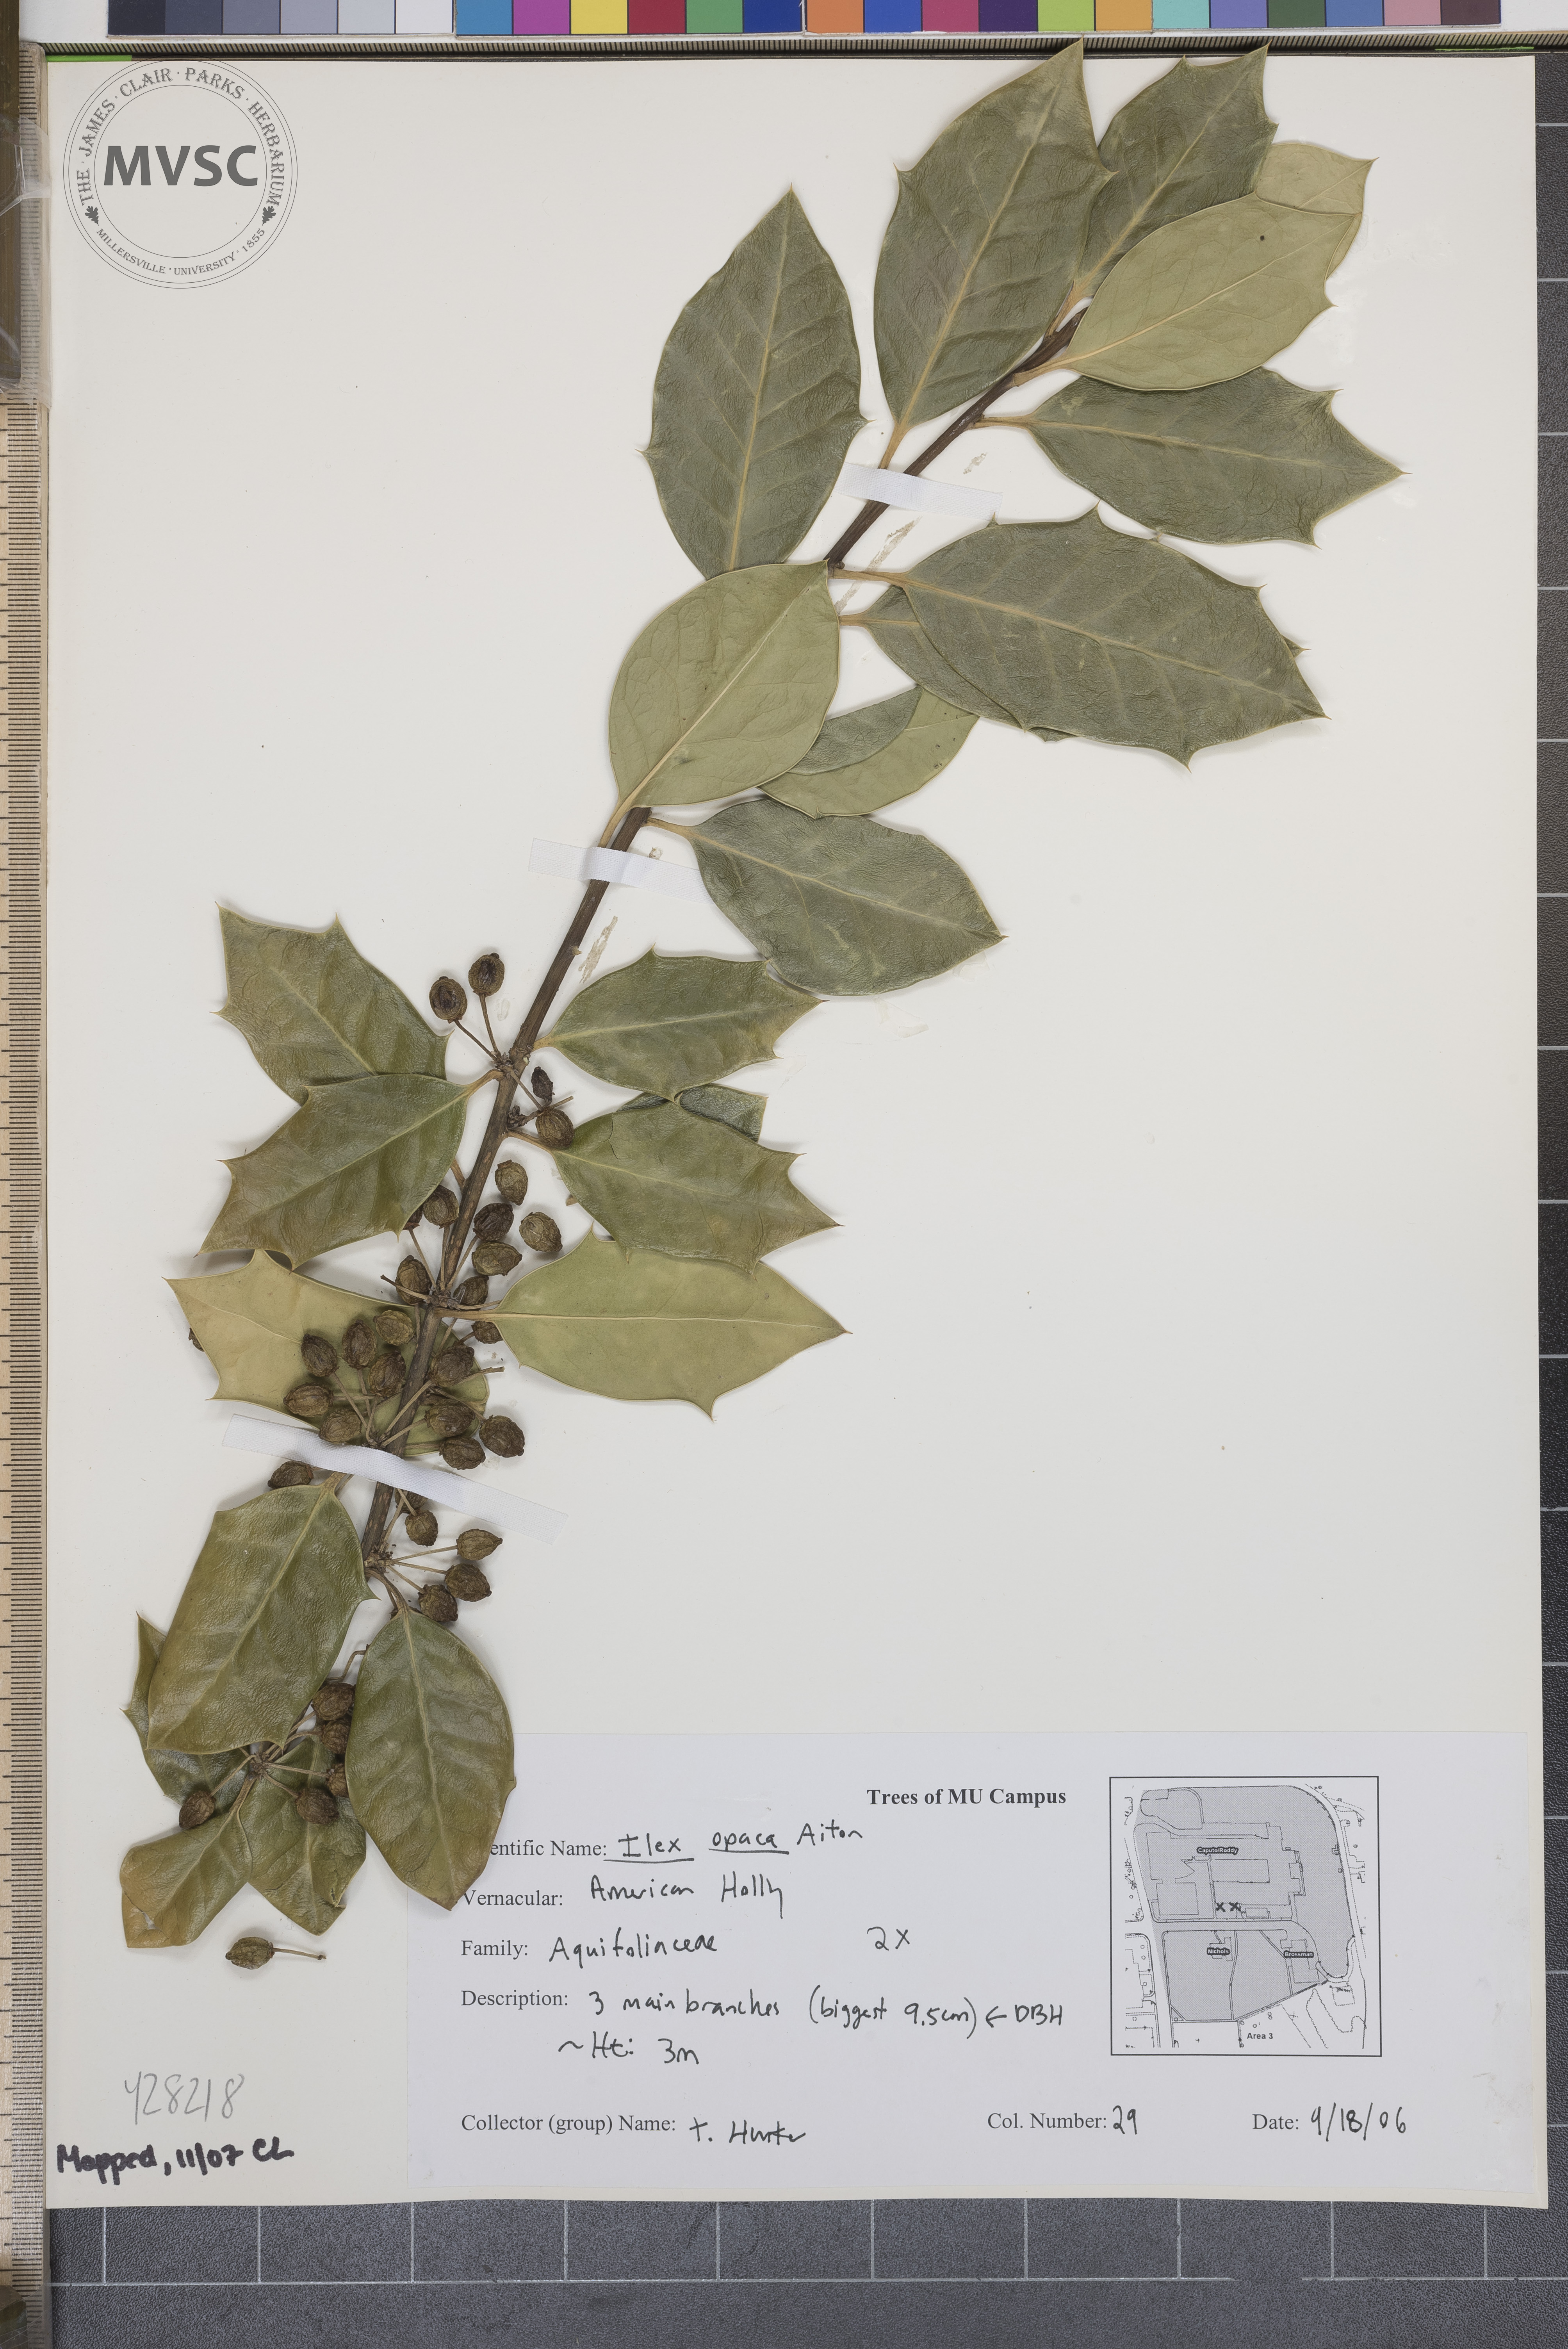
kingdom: Plantae
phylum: Tracheophyta
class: Magnoliopsida
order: Aquifoliales
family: Aquifoliaceae
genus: Ilex
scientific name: Ilex opaca
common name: American Holly
